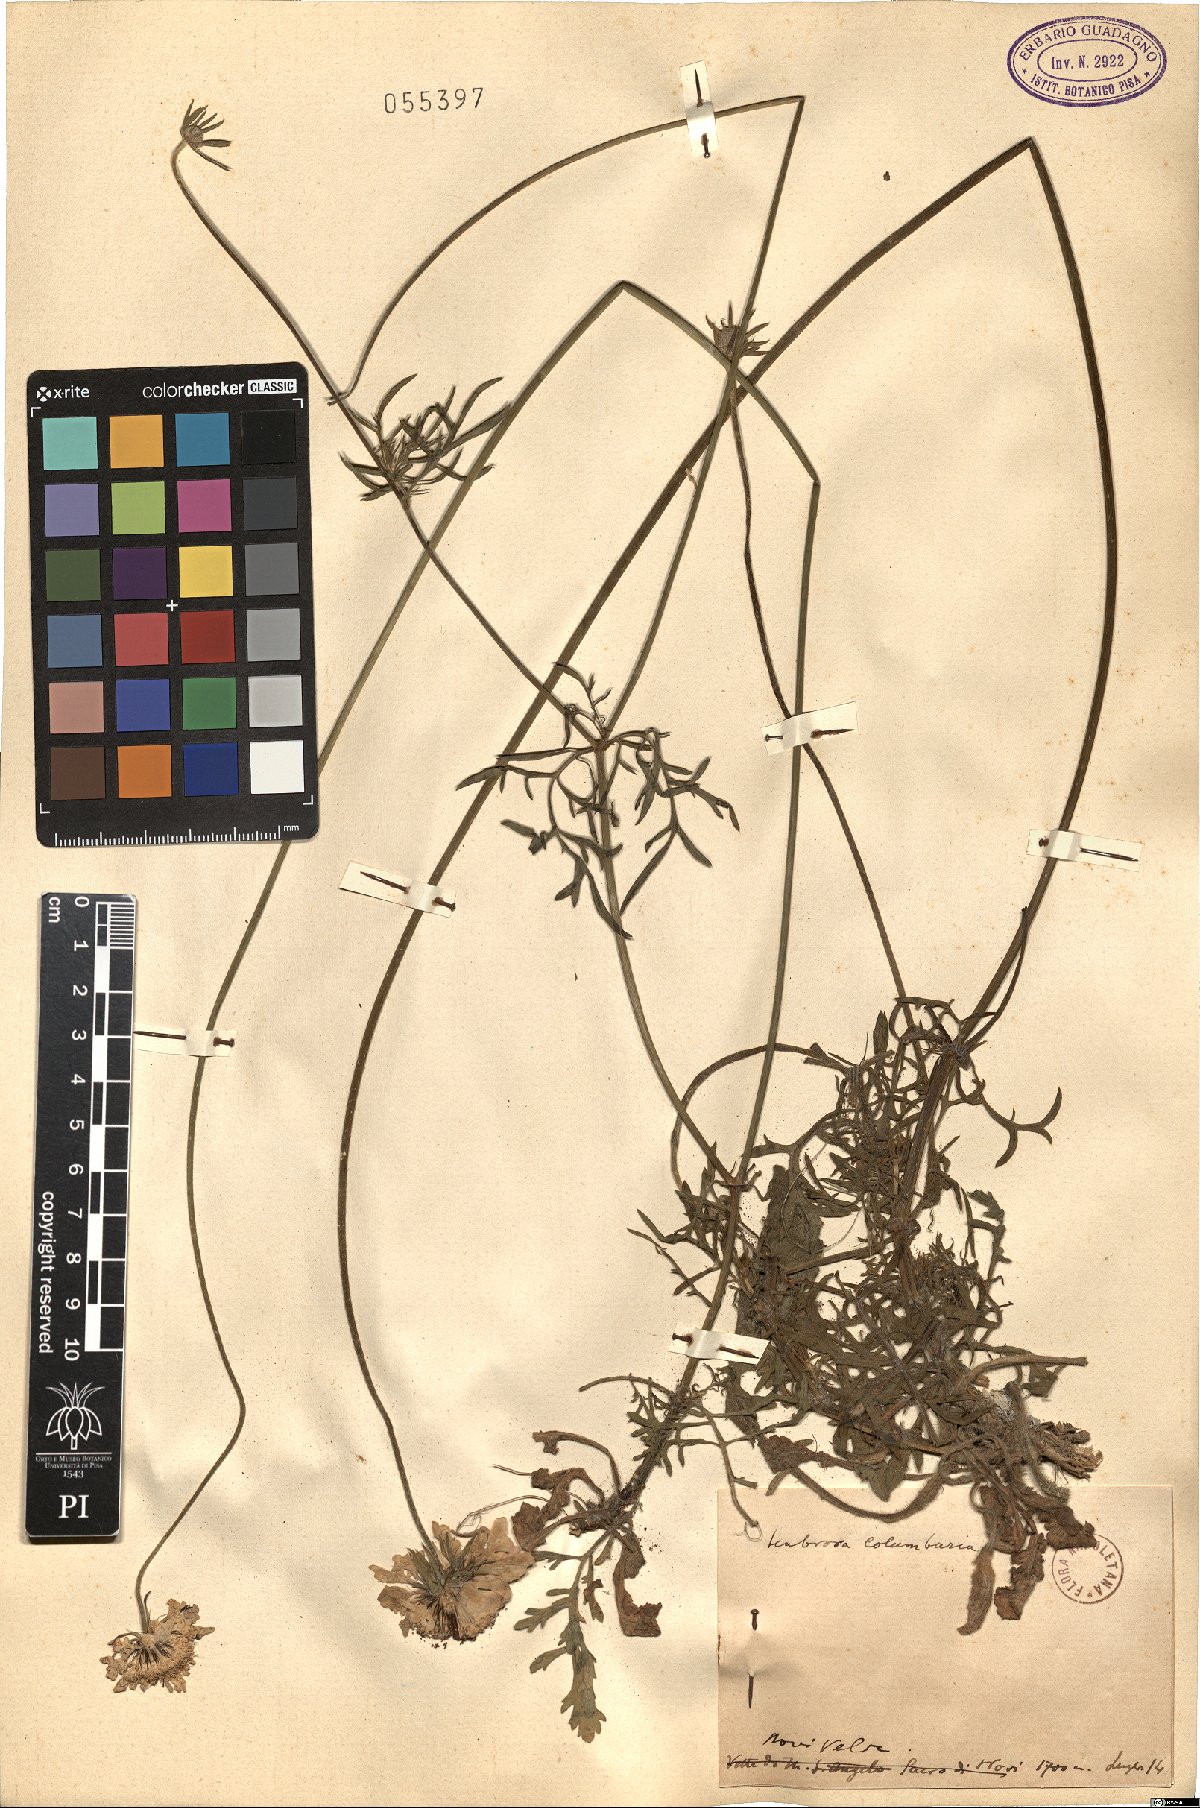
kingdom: Plantae
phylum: Tracheophyta
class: Magnoliopsida
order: Dipsacales
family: Caprifoliaceae
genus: Scabiosa
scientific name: Scabiosa columbaria
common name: Small scabious
